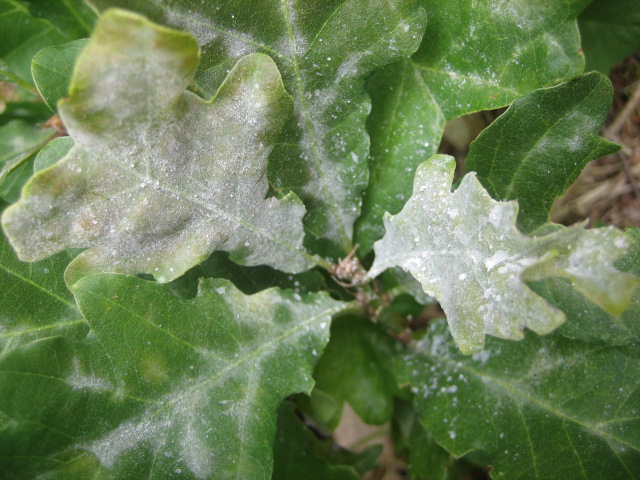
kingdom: Fungi
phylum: Ascomycota
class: Leotiomycetes
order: Helotiales
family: Erysiphaceae
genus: Erysiphe
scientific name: Erysiphe alphitoides
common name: ege-meldug
